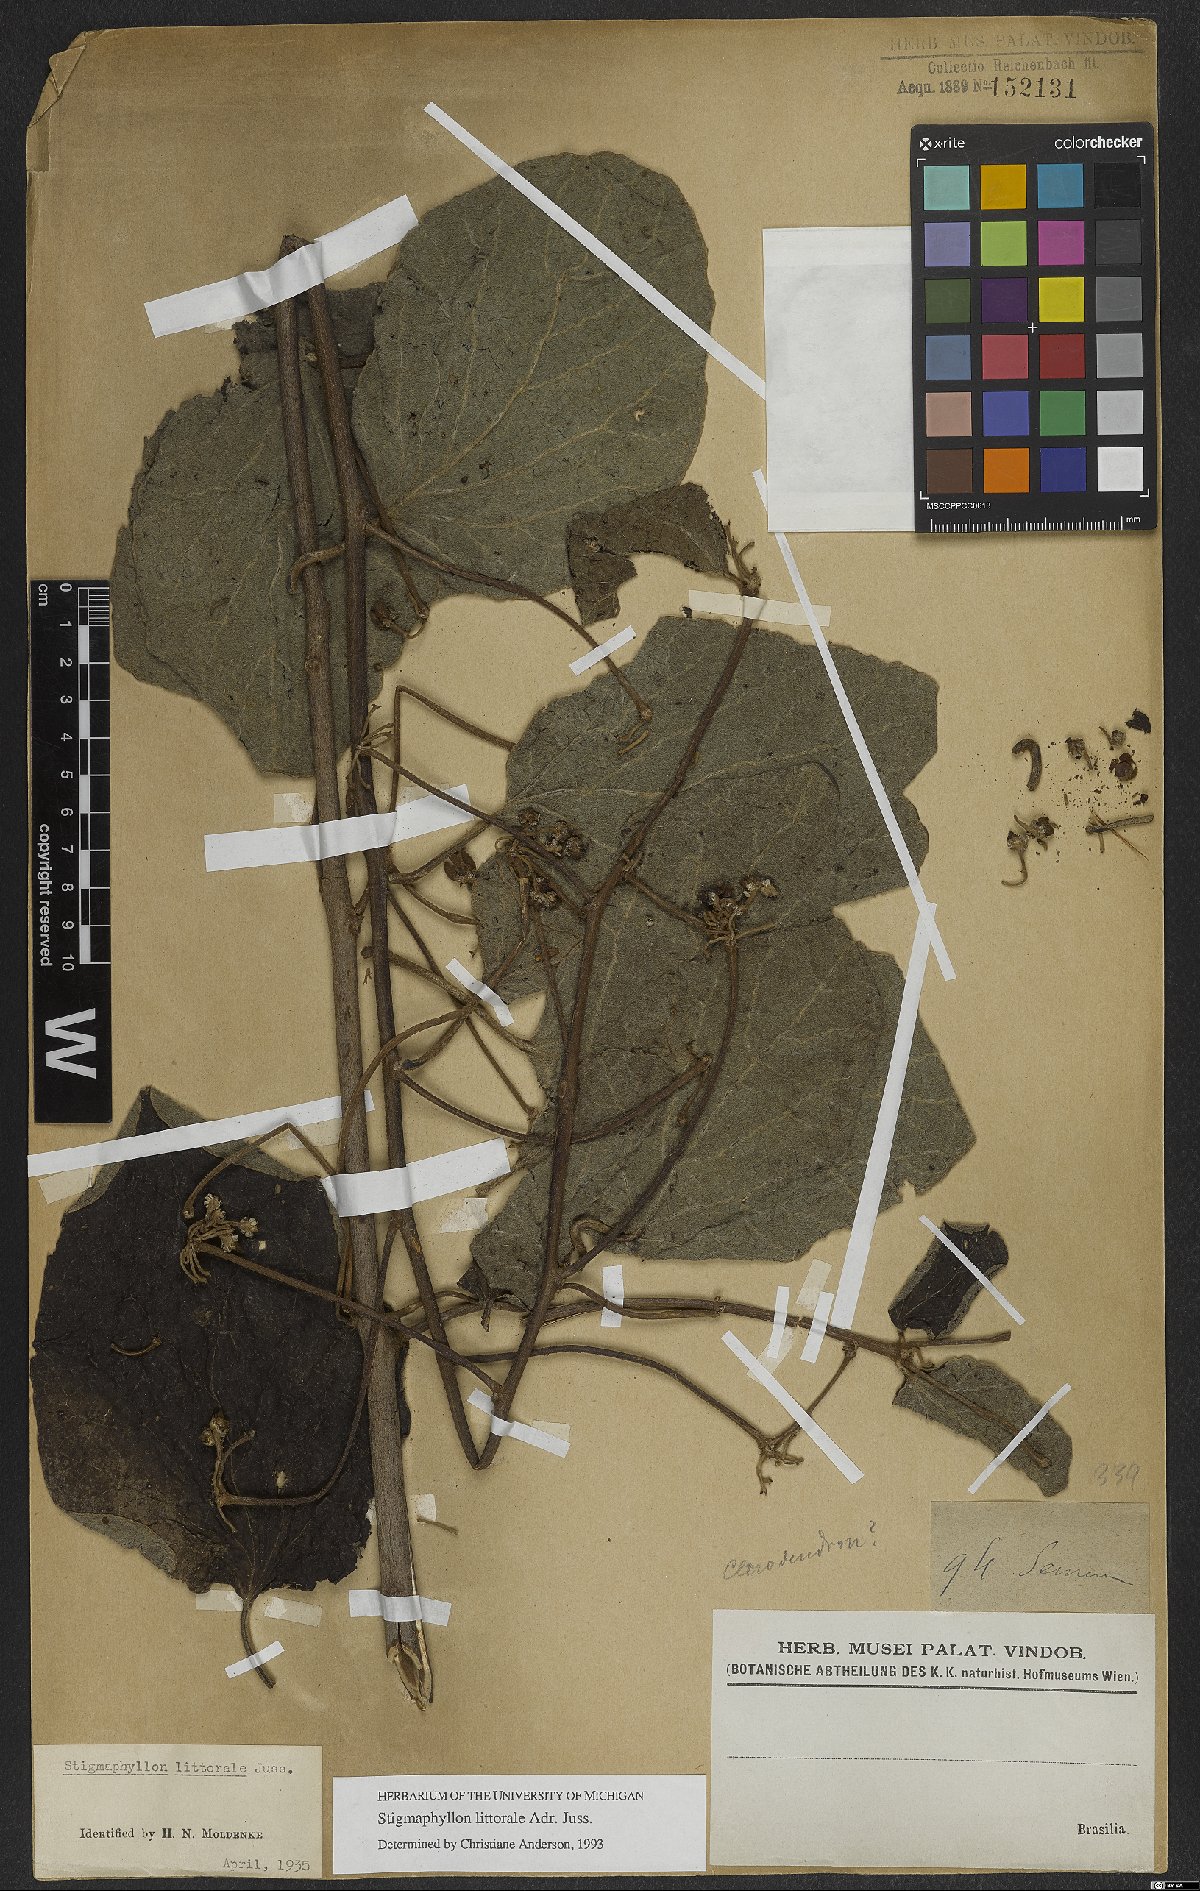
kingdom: Plantae
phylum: Tracheophyta
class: Magnoliopsida
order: Malpighiales
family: Malpighiaceae
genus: Stigmaphyllon
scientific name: Stigmaphyllon bonariense
